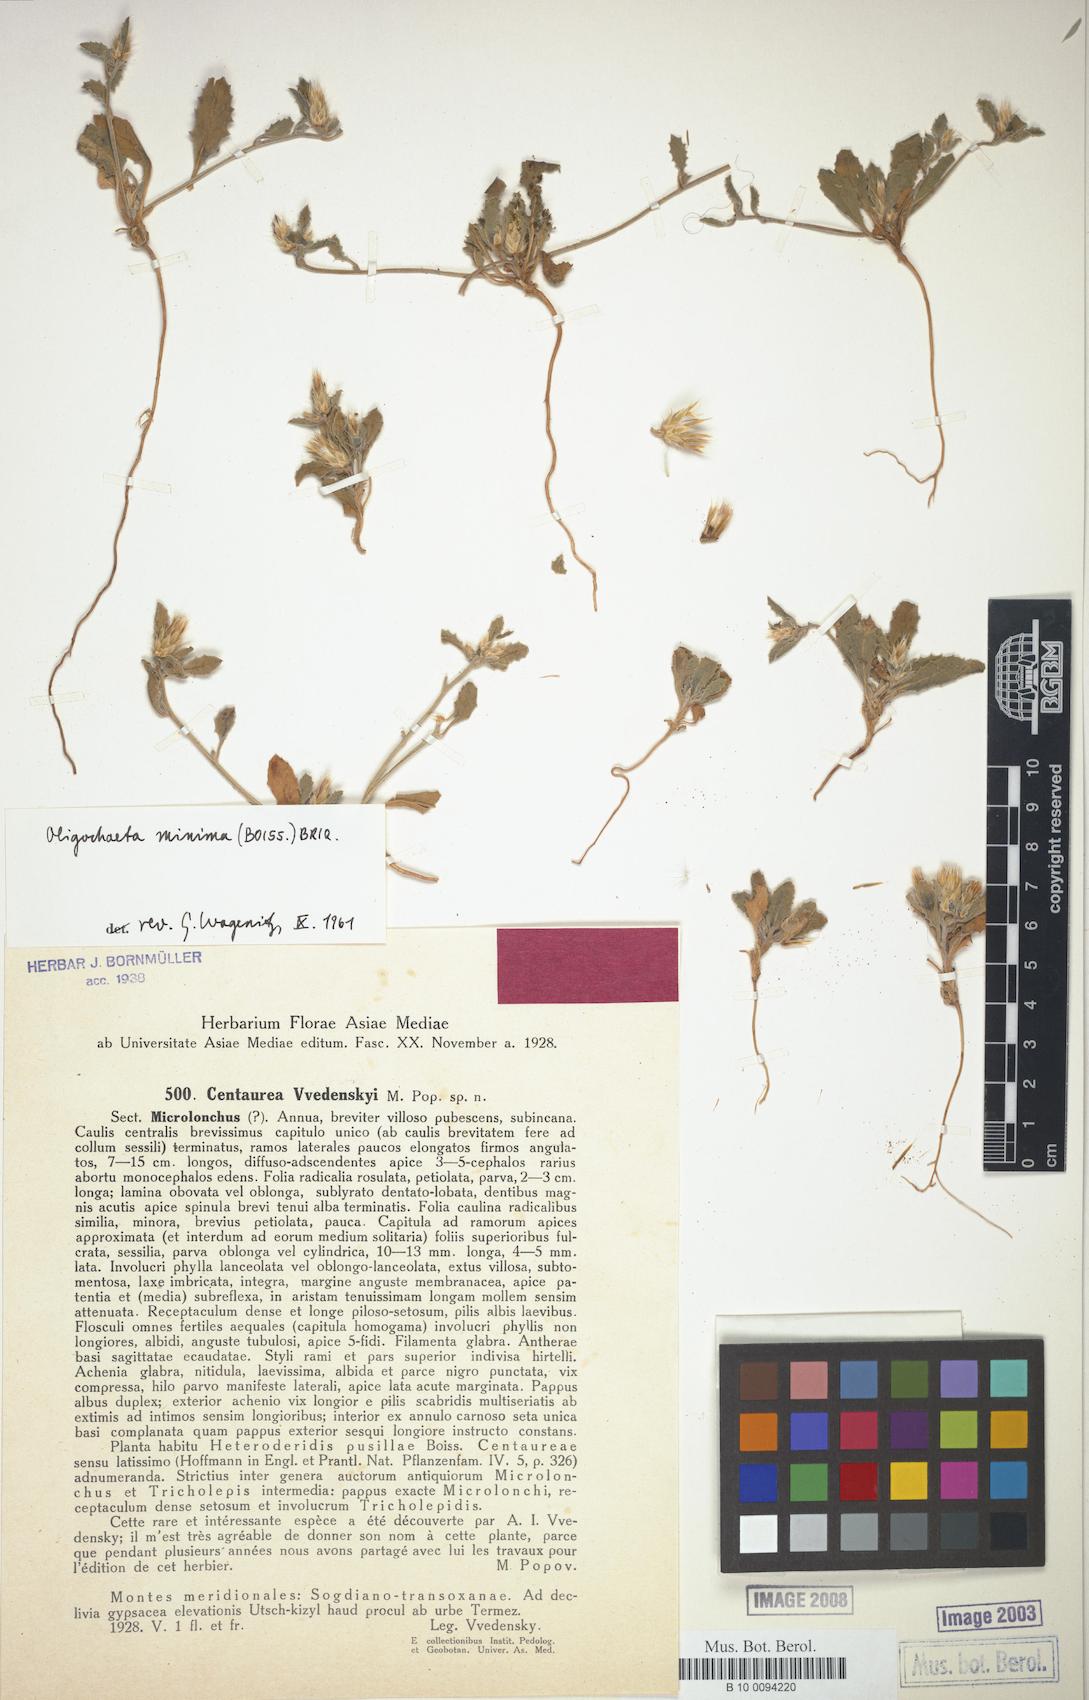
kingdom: Plantae
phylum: Tracheophyta
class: Magnoliopsida
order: Asterales
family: Asteraceae
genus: Oligochaeta
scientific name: Oligochaeta minima
